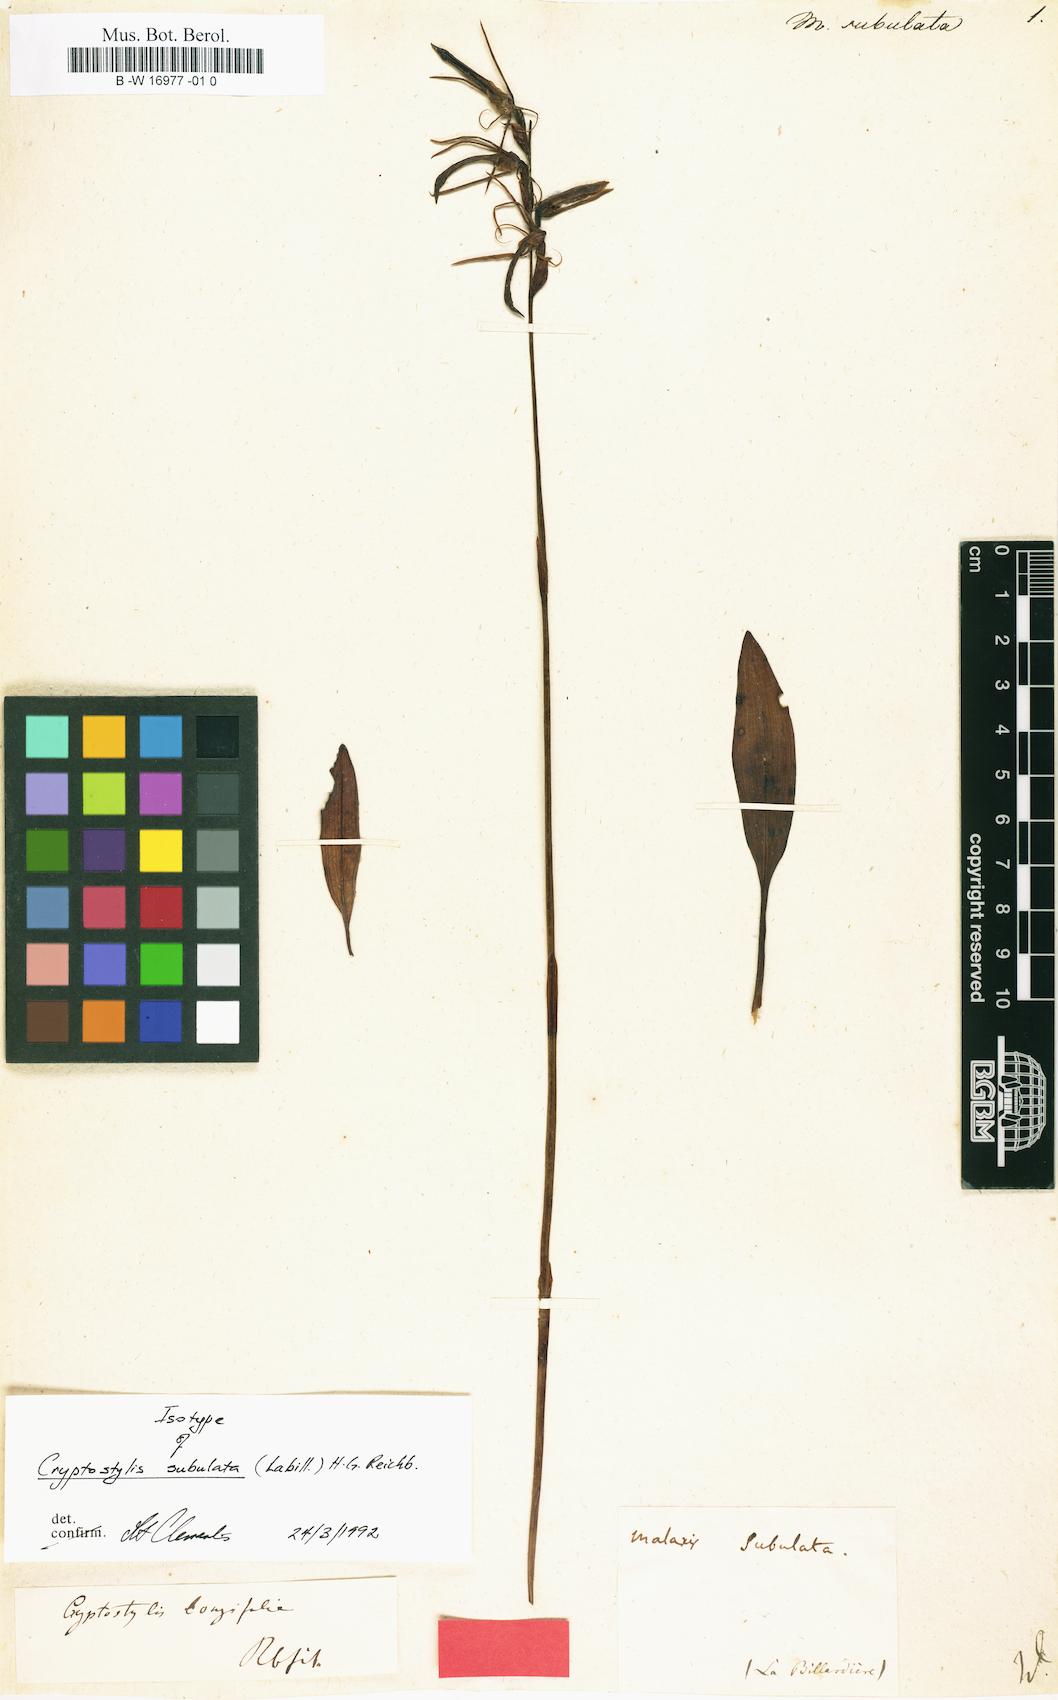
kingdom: Plantae
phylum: Tracheophyta
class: Liliopsida
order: Asparagales
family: Orchidaceae
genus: Cryptostylis
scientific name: Cryptostylis subulata
